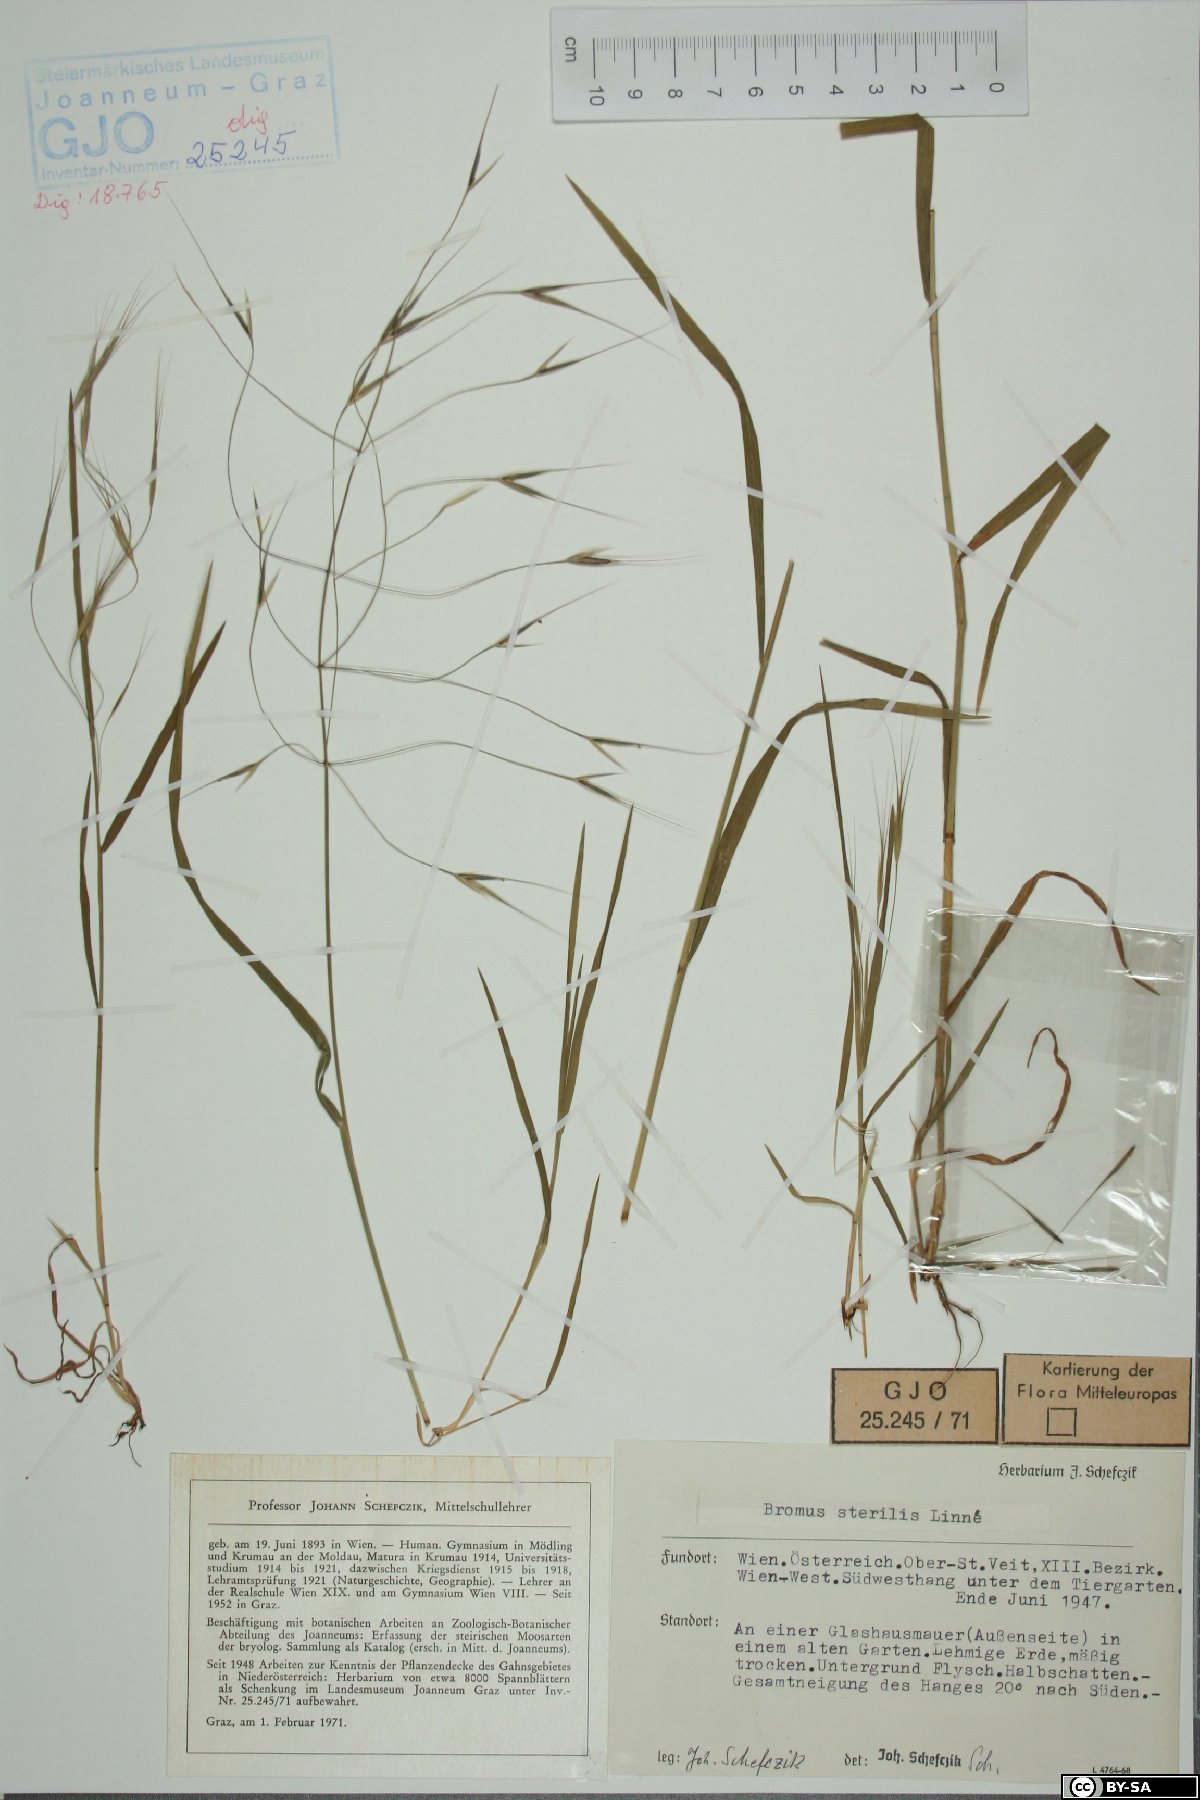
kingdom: Plantae
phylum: Tracheophyta
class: Liliopsida
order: Poales
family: Poaceae
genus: Bromus
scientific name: Bromus sterilis
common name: Poverty brome
